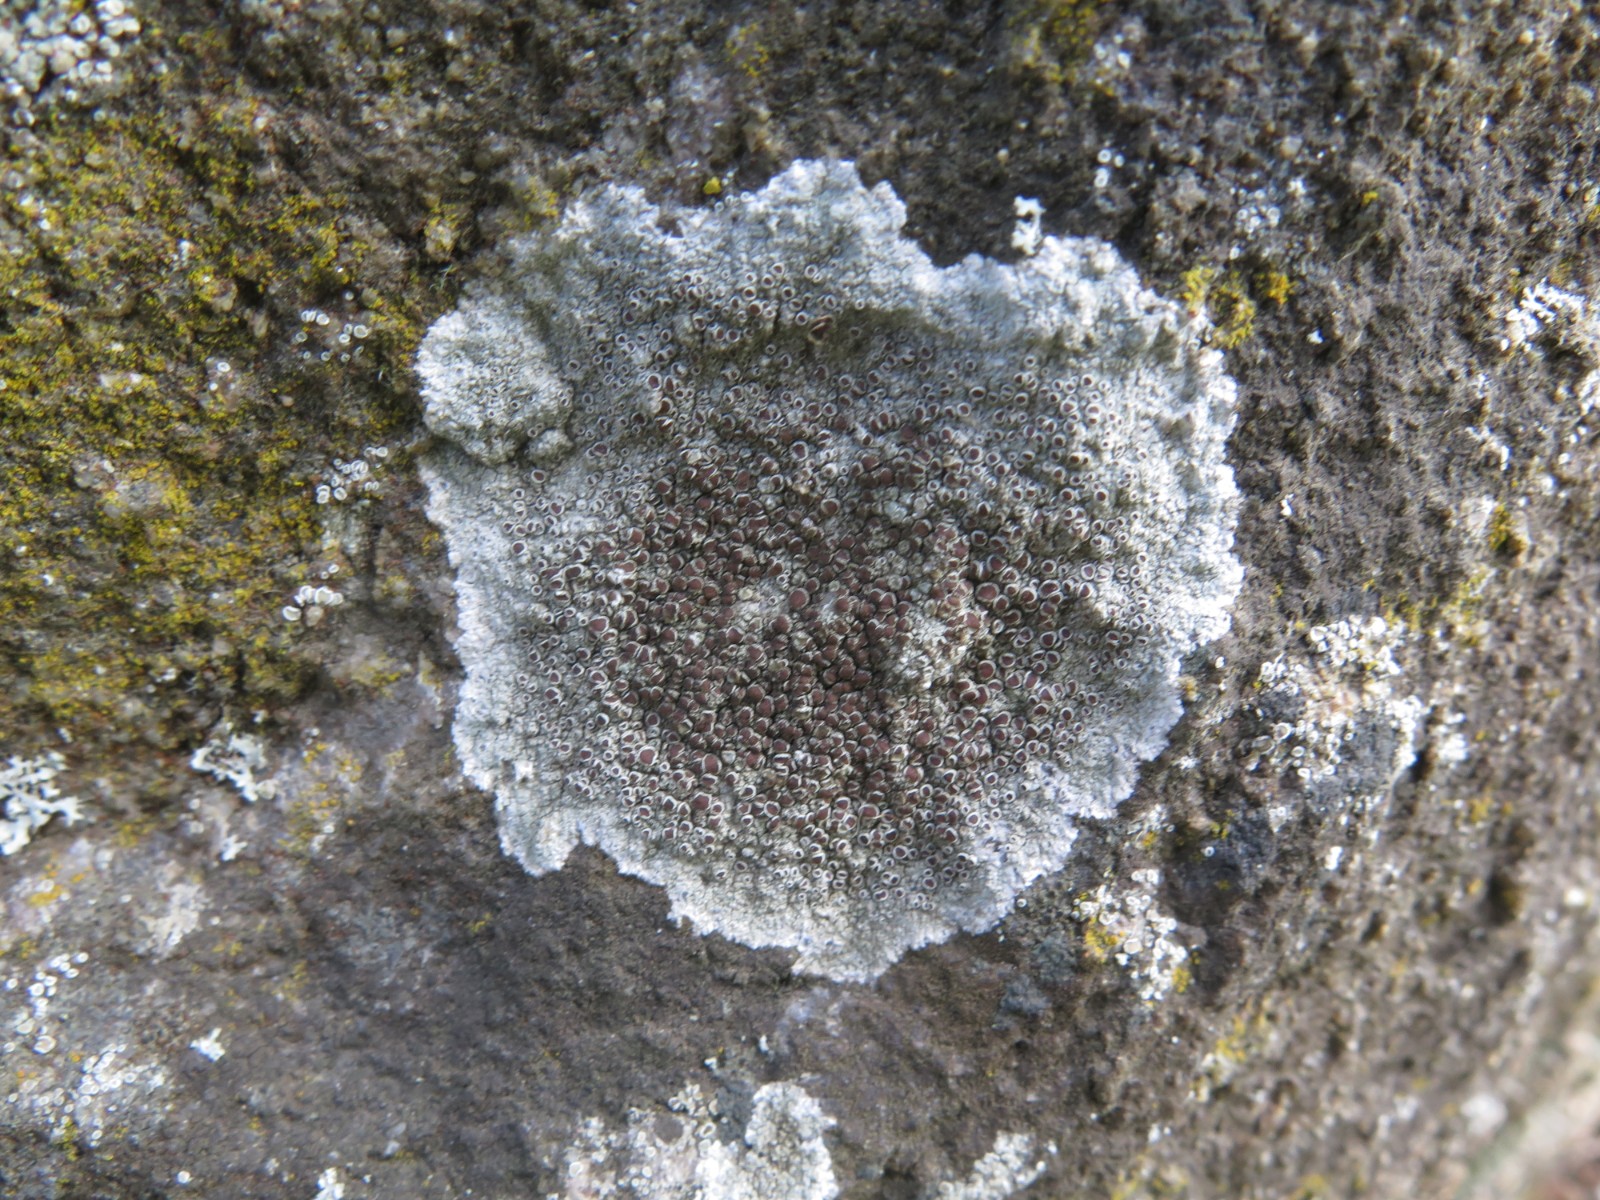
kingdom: Fungi
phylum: Ascomycota
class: Lecanoromycetes
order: Lecanorales
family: Lecanoraceae
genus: Lecanora
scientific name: Lecanora campestris
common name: mur-kantskivelav
